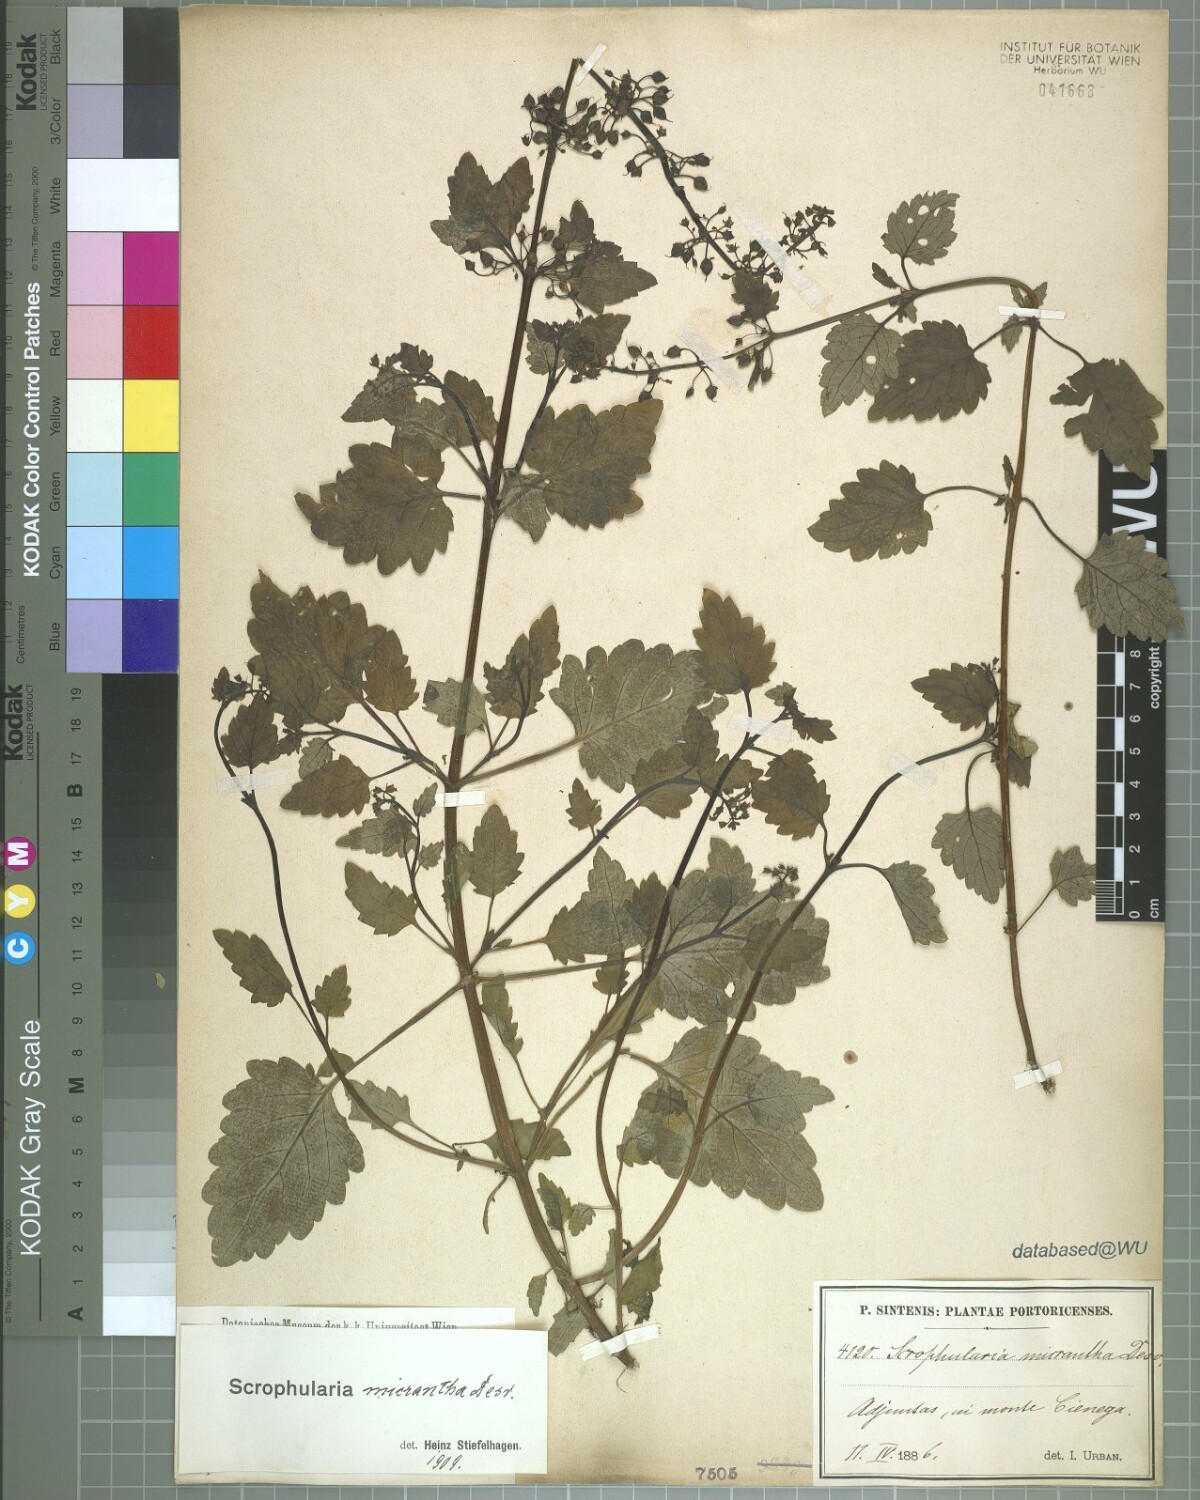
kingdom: Plantae
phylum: Tracheophyta
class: Magnoliopsida
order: Lamiales
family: Scrophulariaceae
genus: Scrophularia
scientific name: Scrophularia minutiflora
